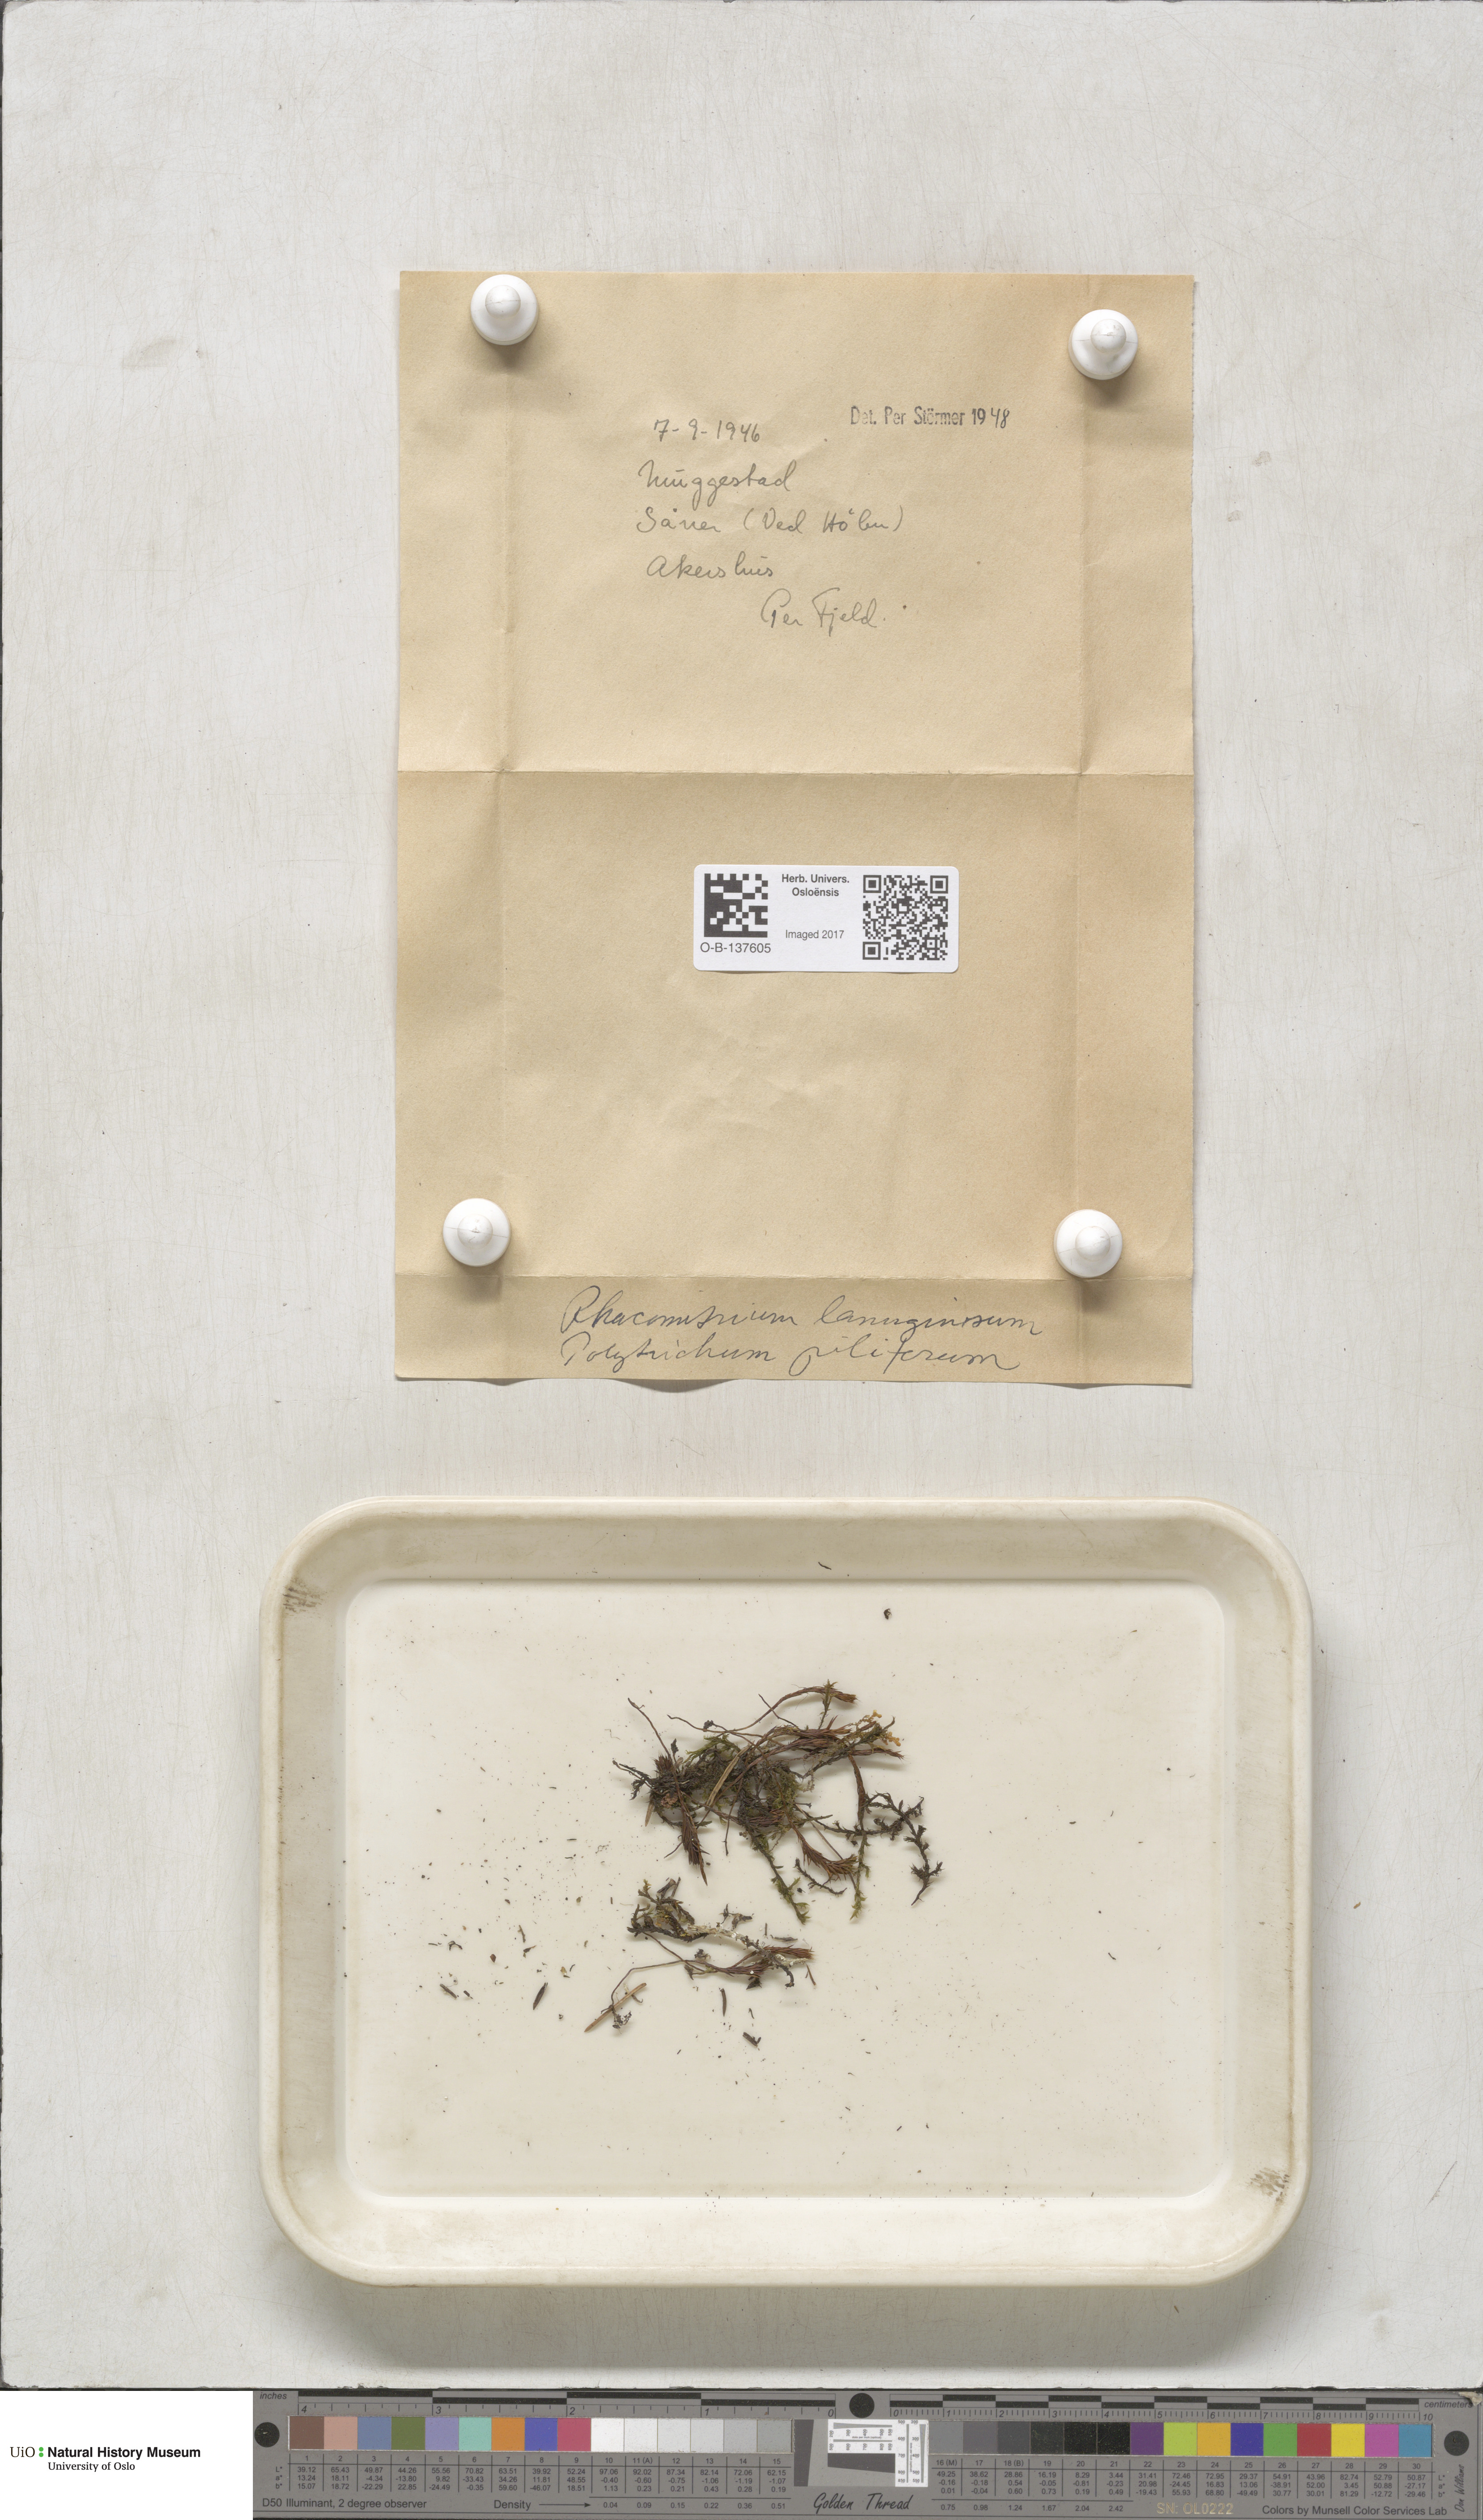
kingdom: Plantae
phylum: Bryophyta
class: Bryopsida
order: Grimmiales
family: Grimmiaceae
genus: Racomitrium
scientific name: Racomitrium lanuginosum
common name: Hoary rock moss
